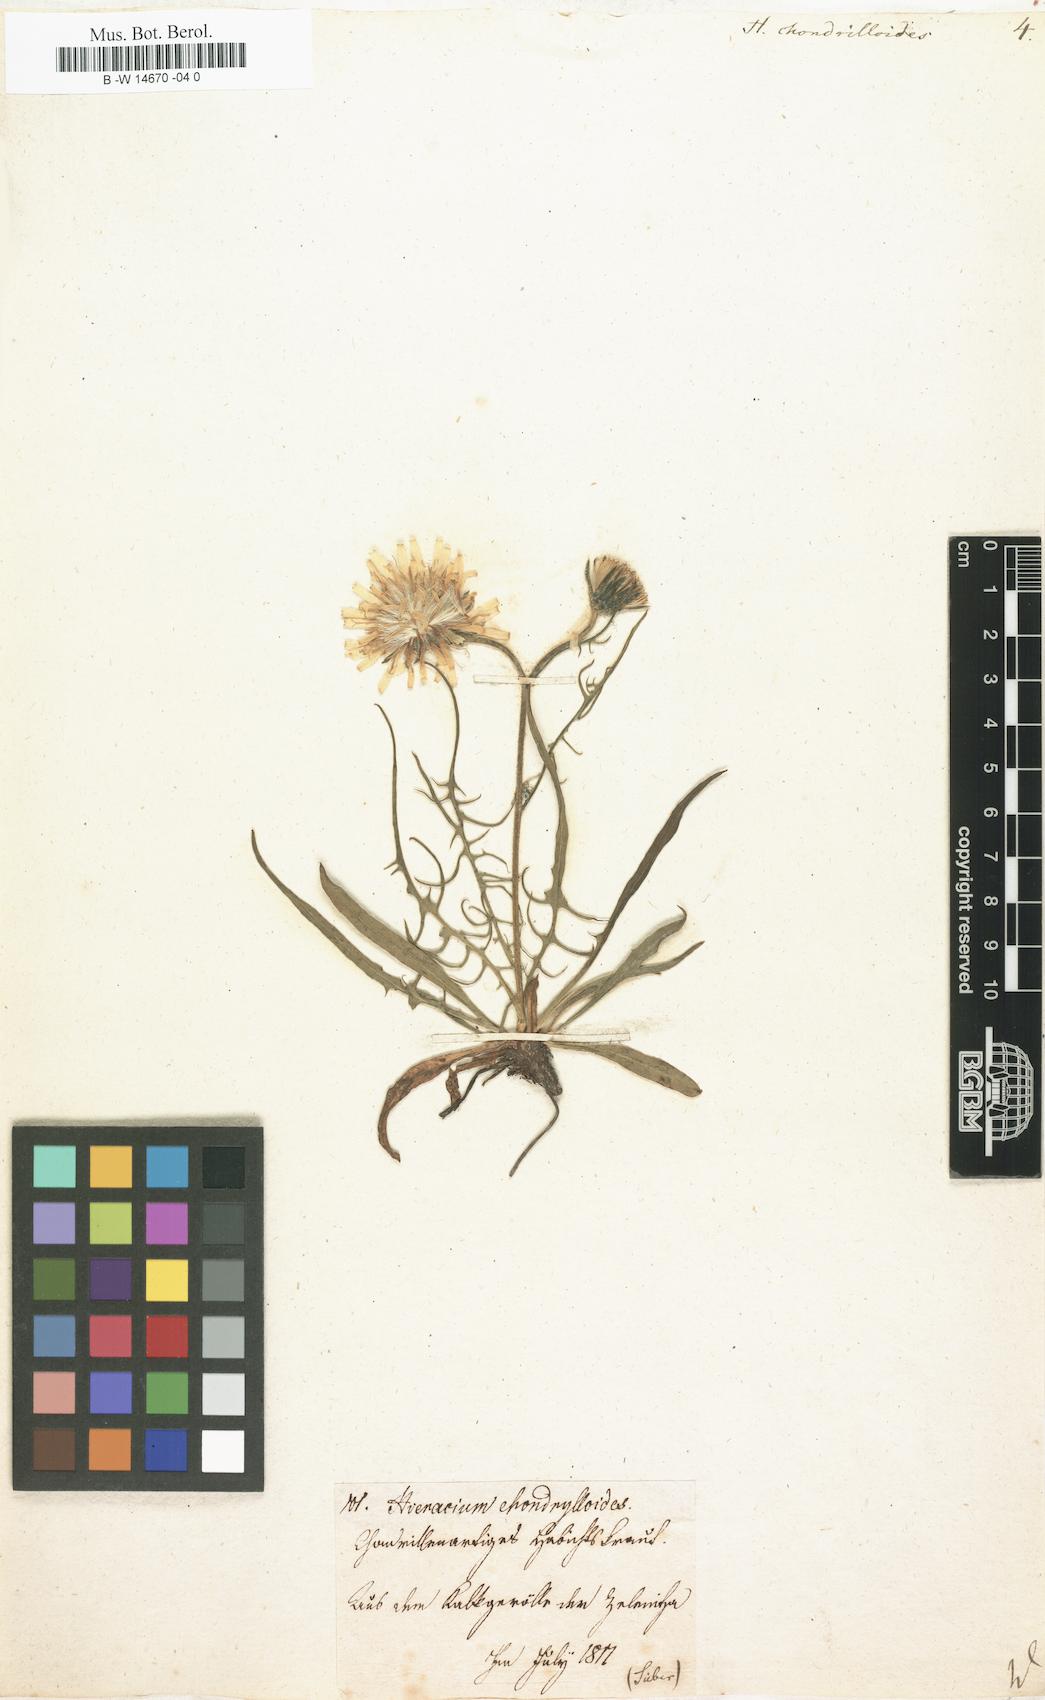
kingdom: Plantae
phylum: Tracheophyta
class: Magnoliopsida
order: Asterales
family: Asteraceae
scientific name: Asteraceae
